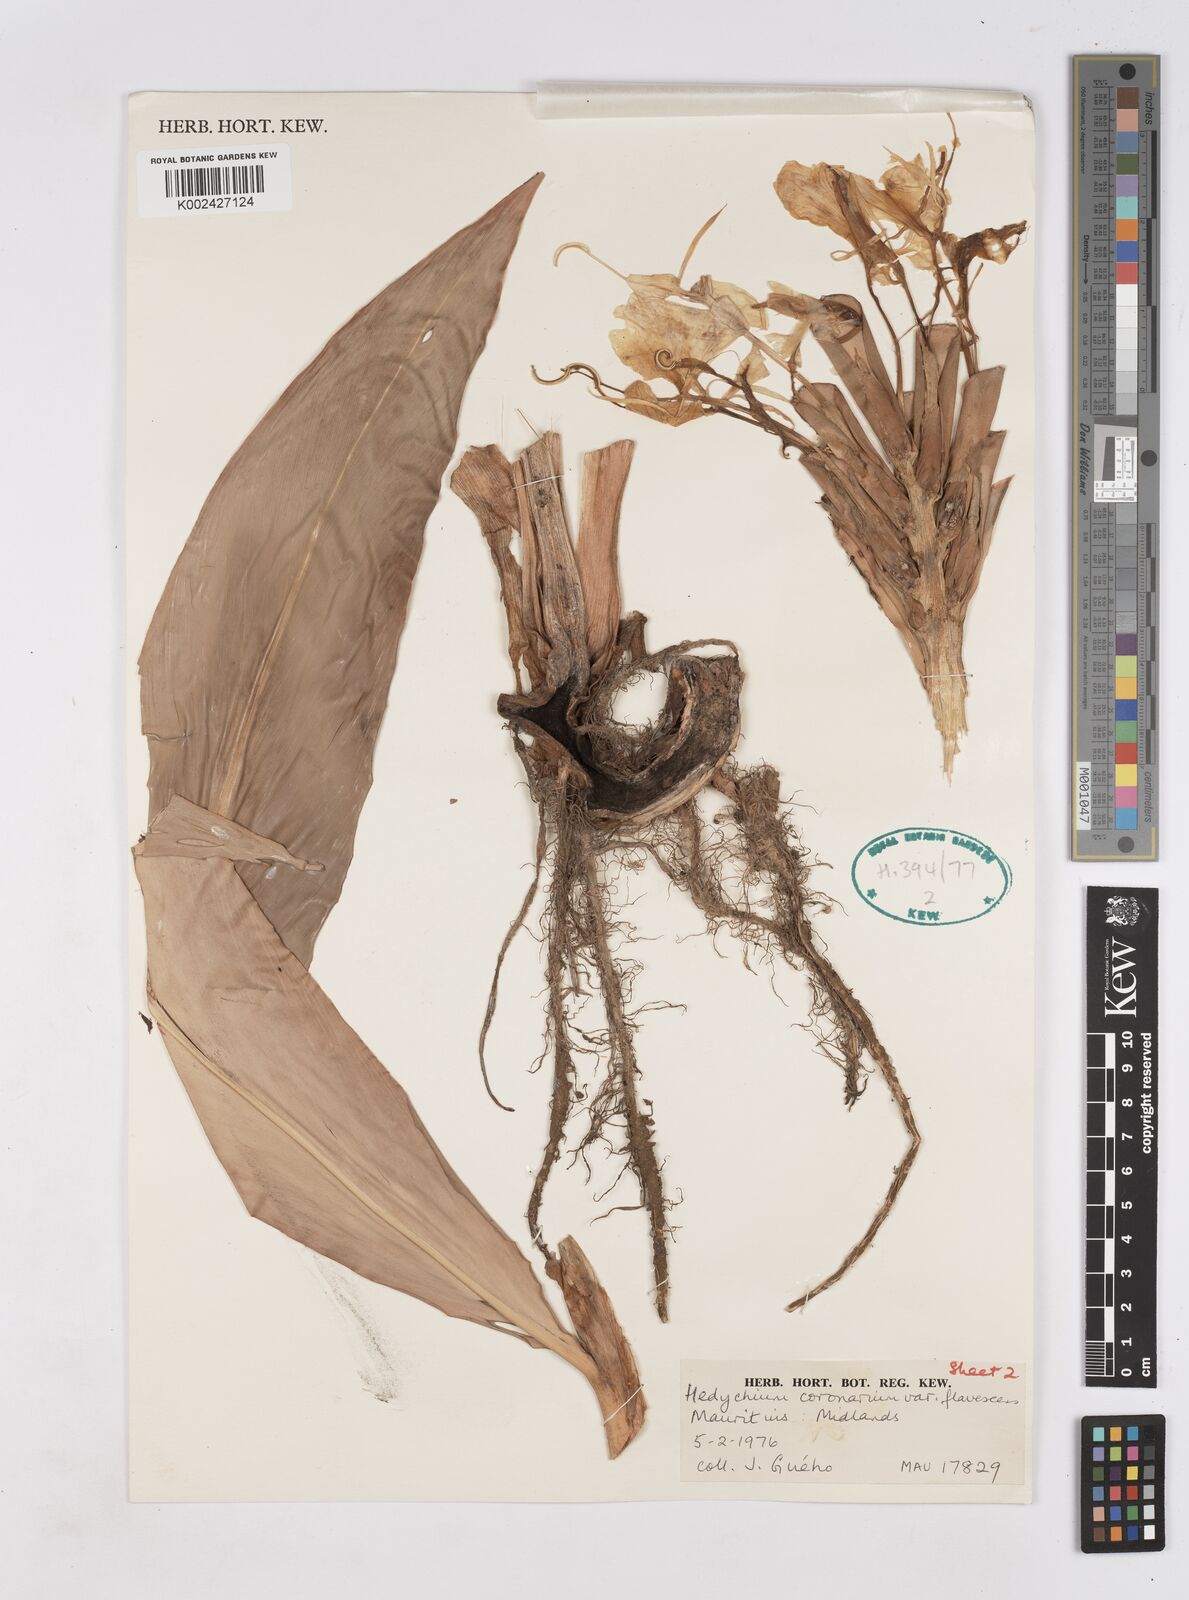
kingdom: Plantae
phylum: Tracheophyta
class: Liliopsida
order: Zingiberales
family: Zingiberaceae
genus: Hedychium
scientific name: Hedychium flavescens
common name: Yellow ginger
